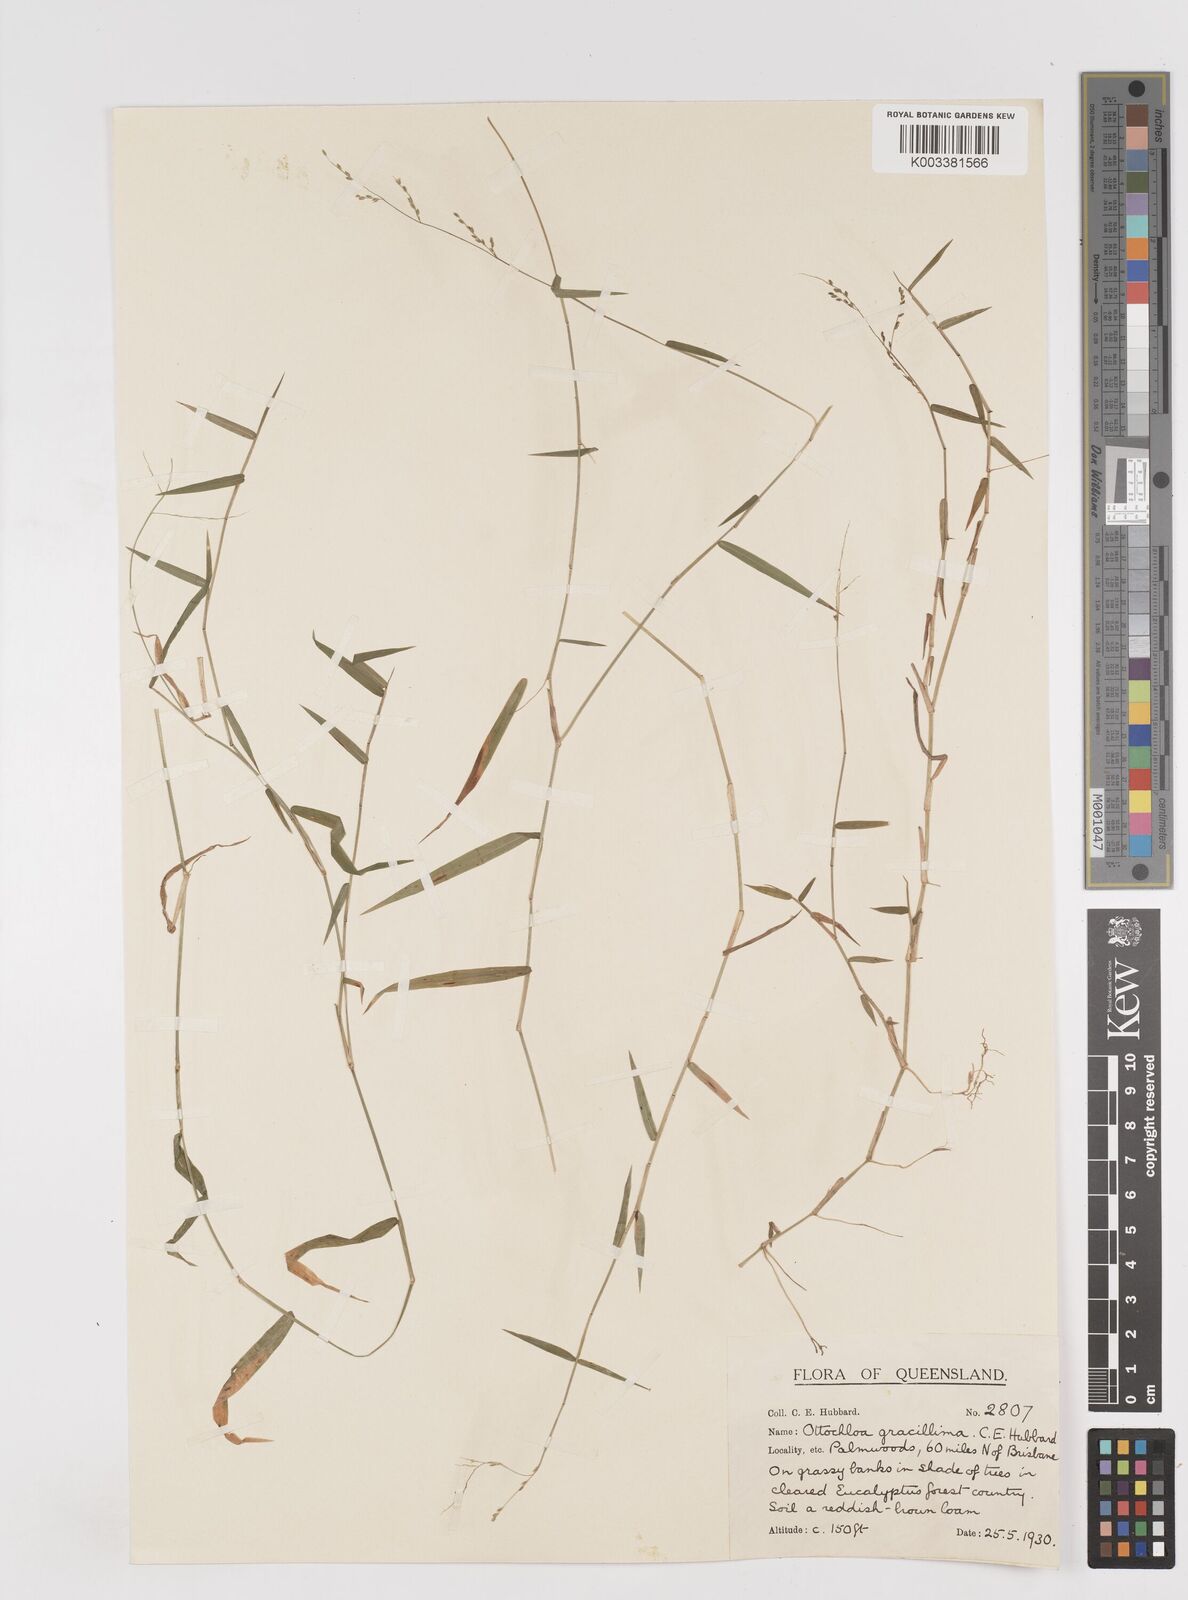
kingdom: Plantae
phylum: Tracheophyta
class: Liliopsida
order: Poales
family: Poaceae
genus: Ottochloa
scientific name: Ottochloa gracillima
